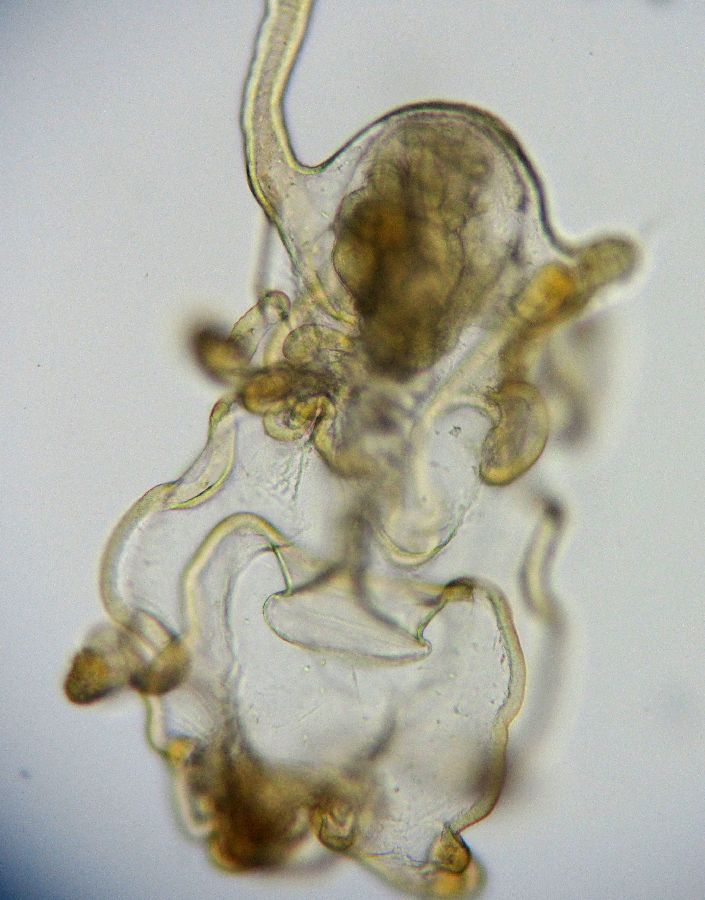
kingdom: Animalia
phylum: Echinodermata
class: Asteroidea
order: Forcipulatida
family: Asteriidae
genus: Asterias
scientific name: Asterias rubens
